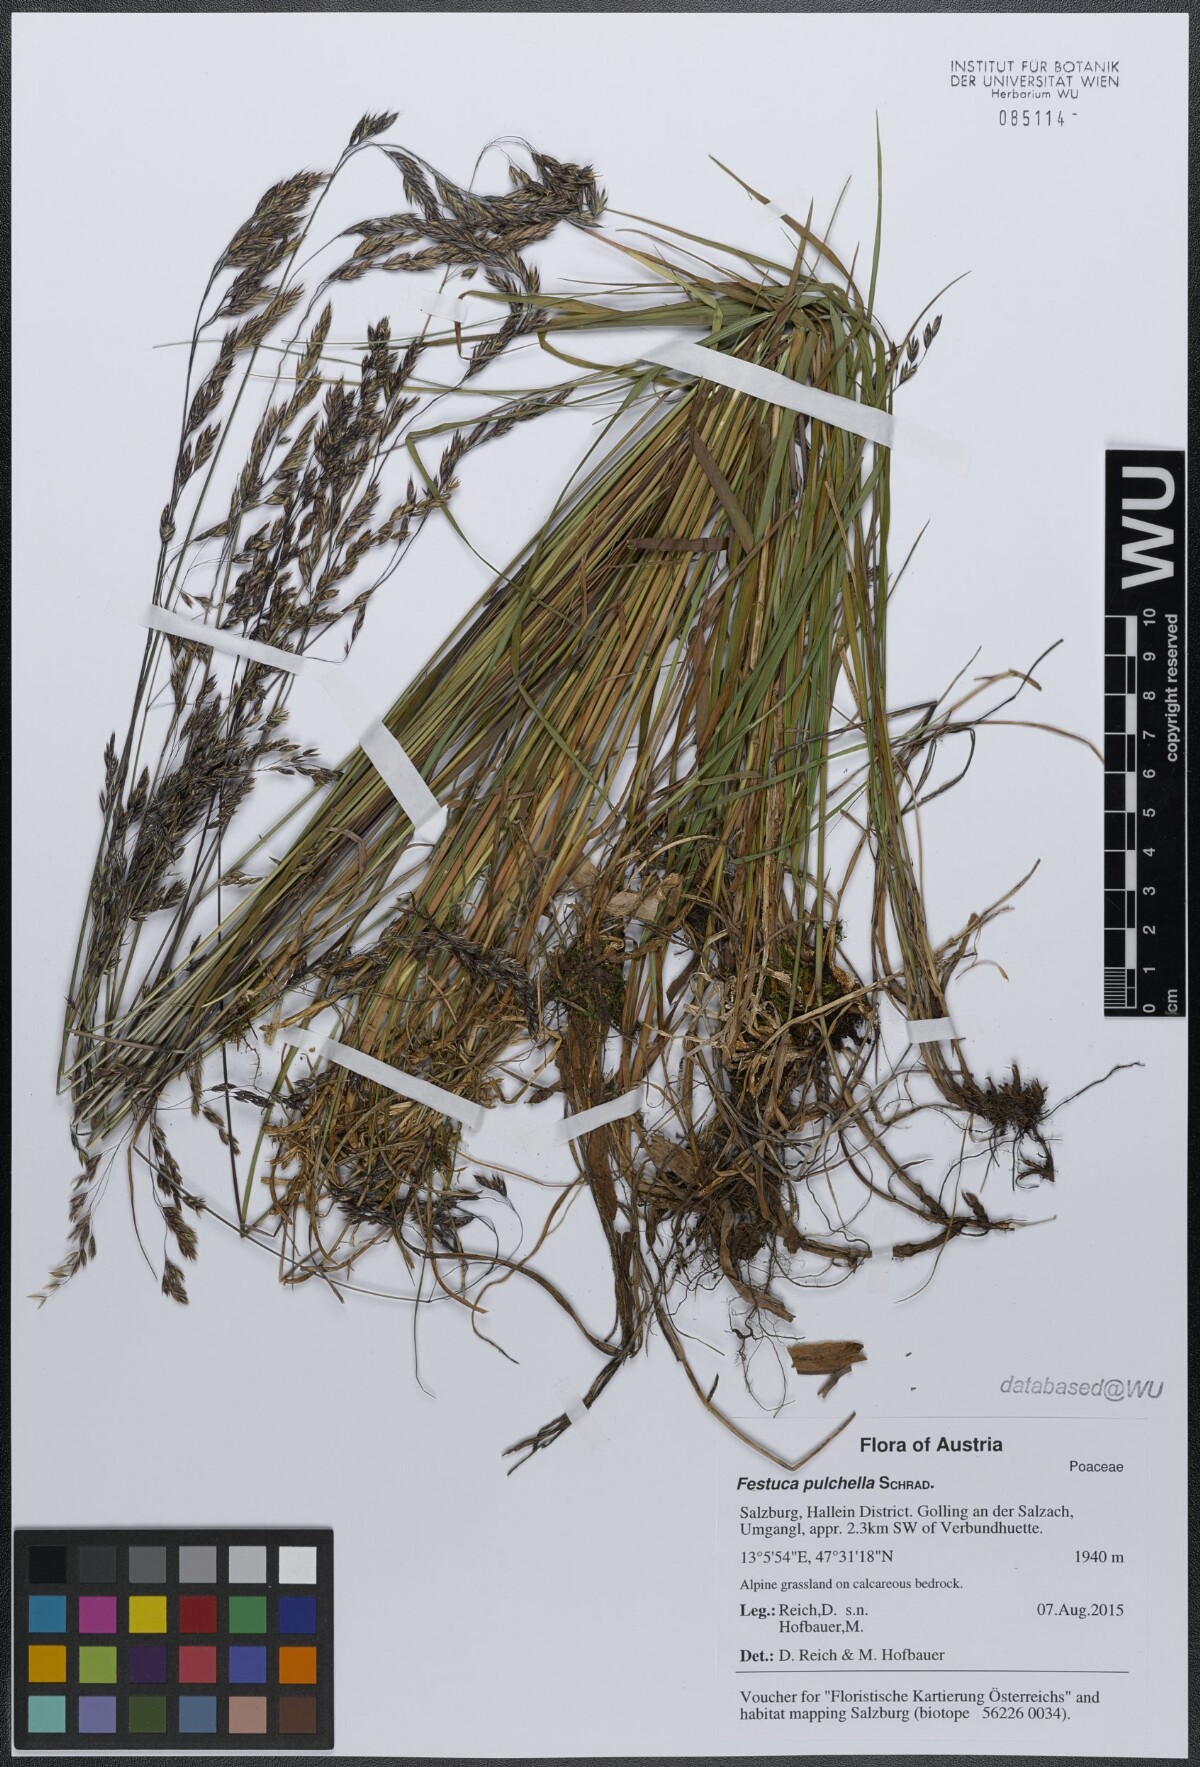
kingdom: Plantae
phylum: Tracheophyta
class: Liliopsida
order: Poales
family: Poaceae
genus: Festuca
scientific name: Festuca pulchella
